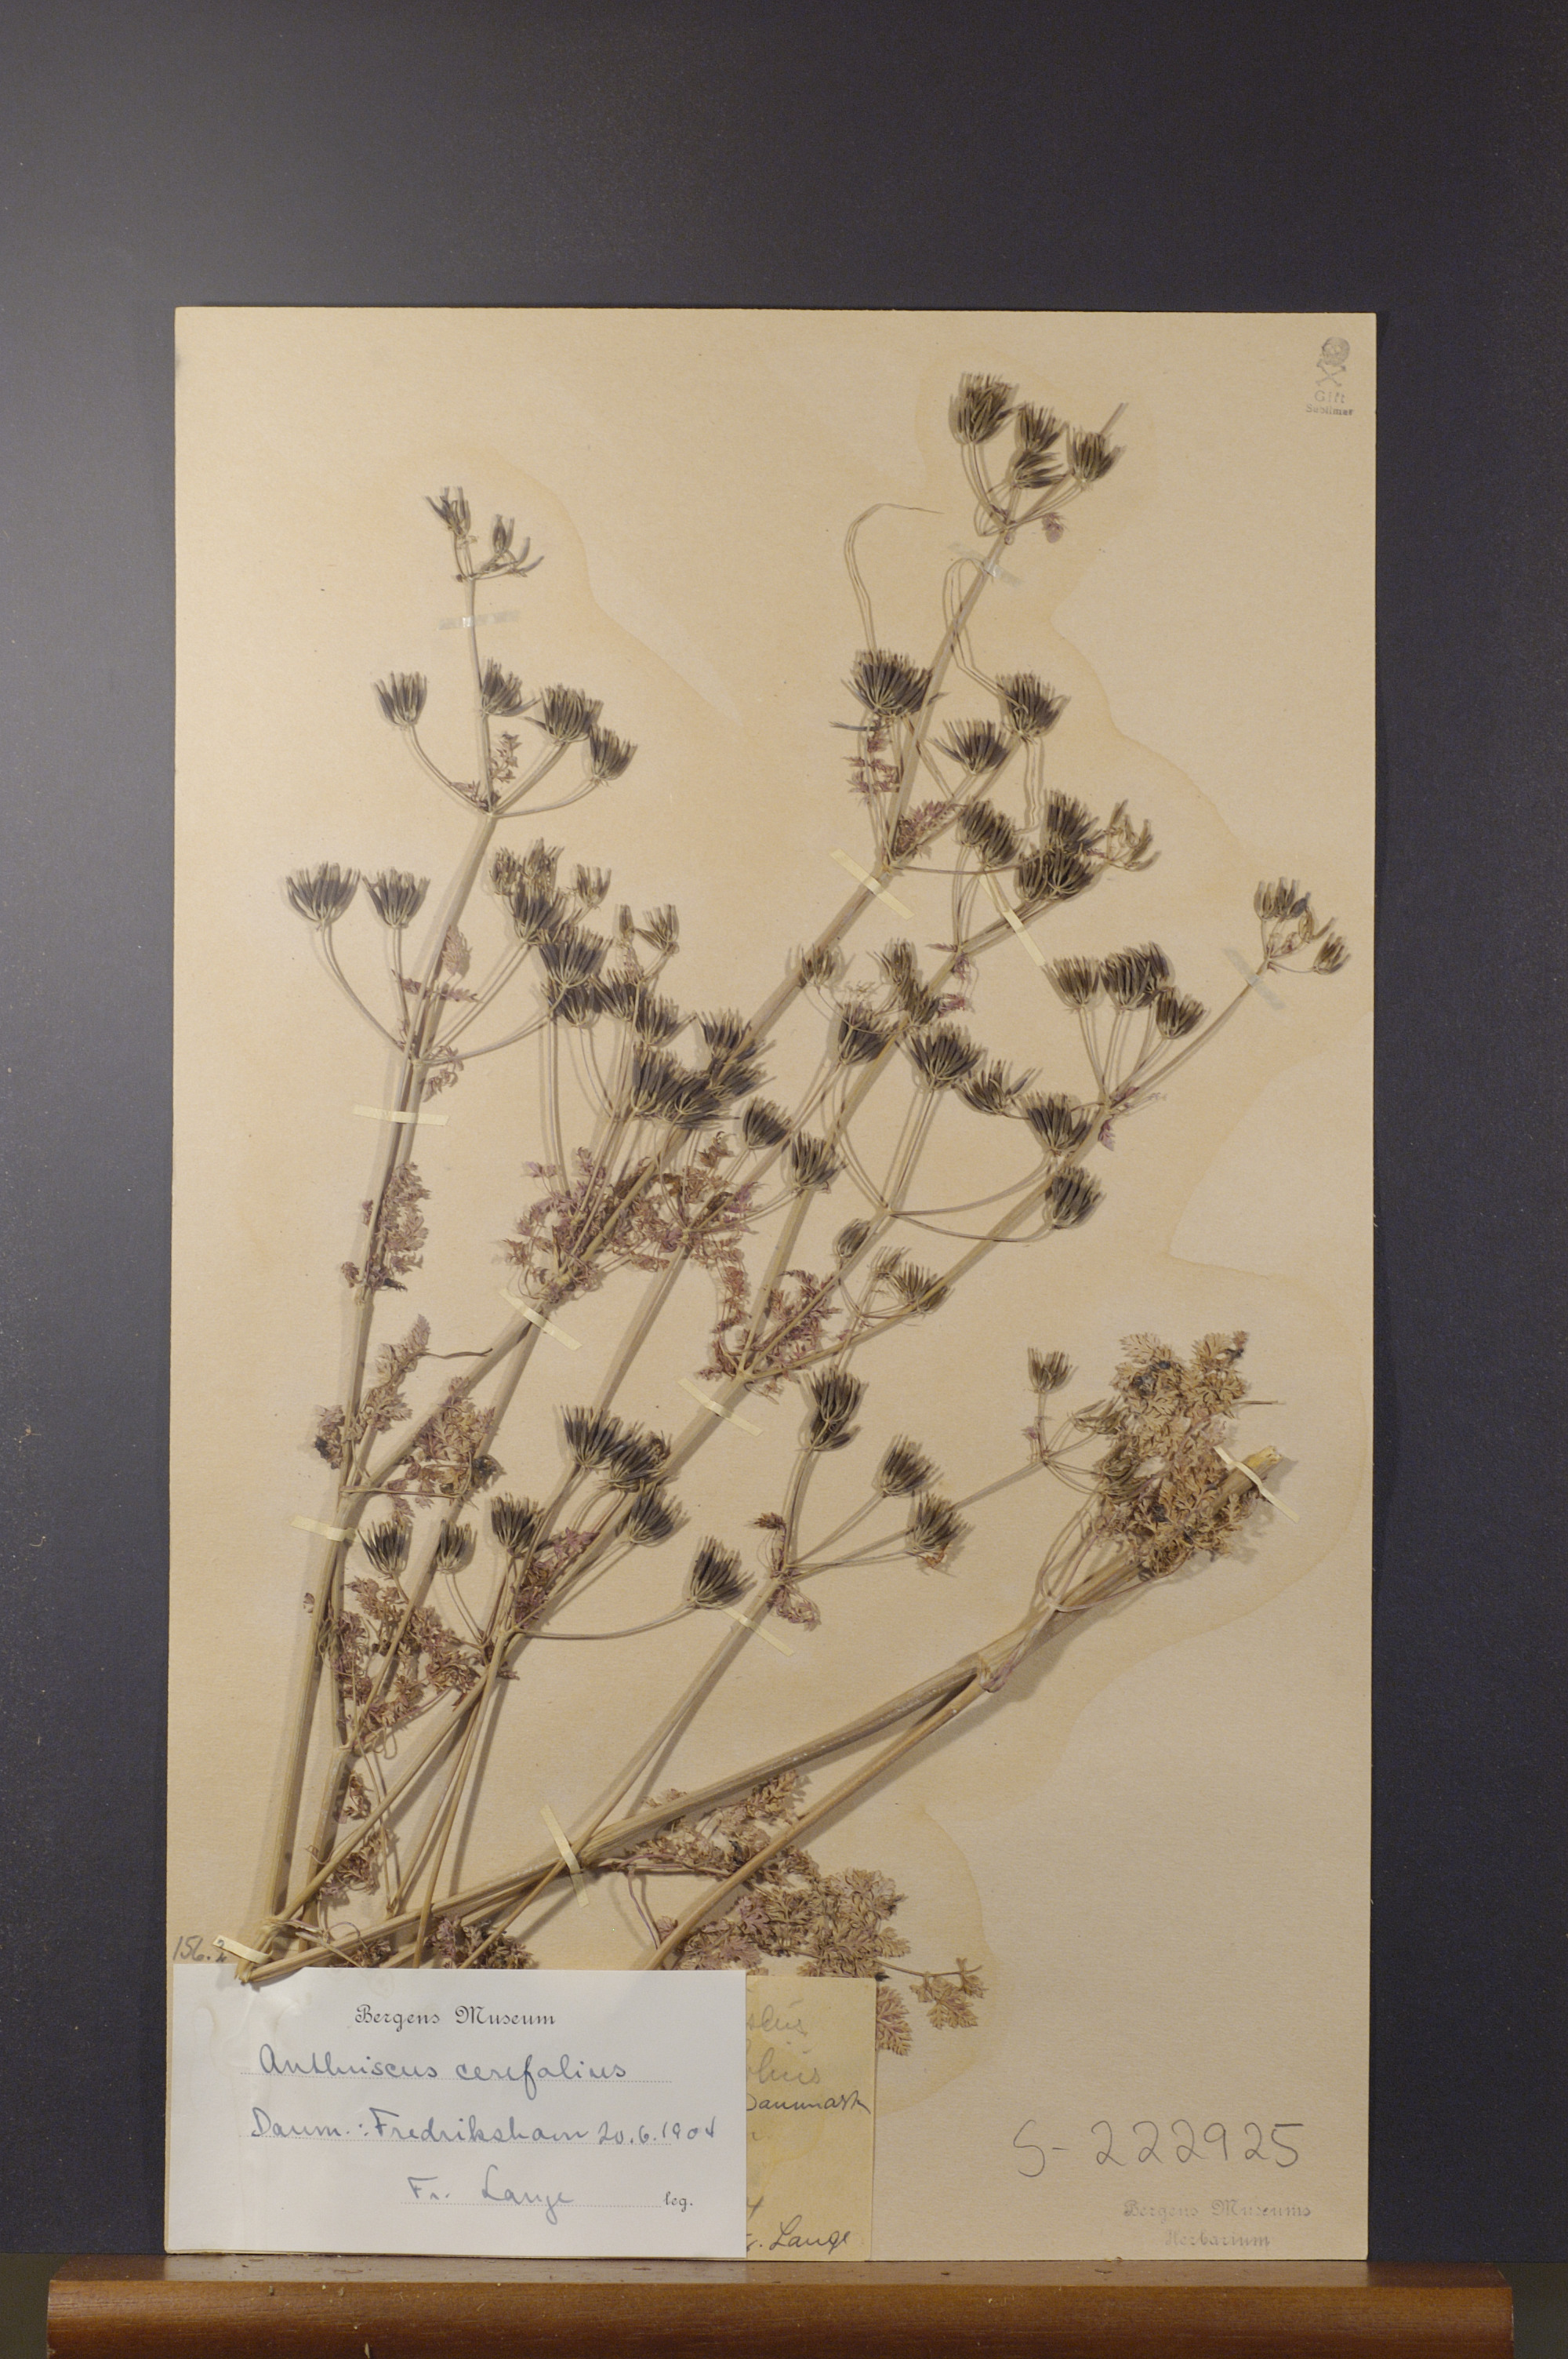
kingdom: Plantae
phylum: Tracheophyta
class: Magnoliopsida
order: Apiales
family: Apiaceae
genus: Anthriscus
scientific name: Anthriscus cerefolium
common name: Garden chervil
